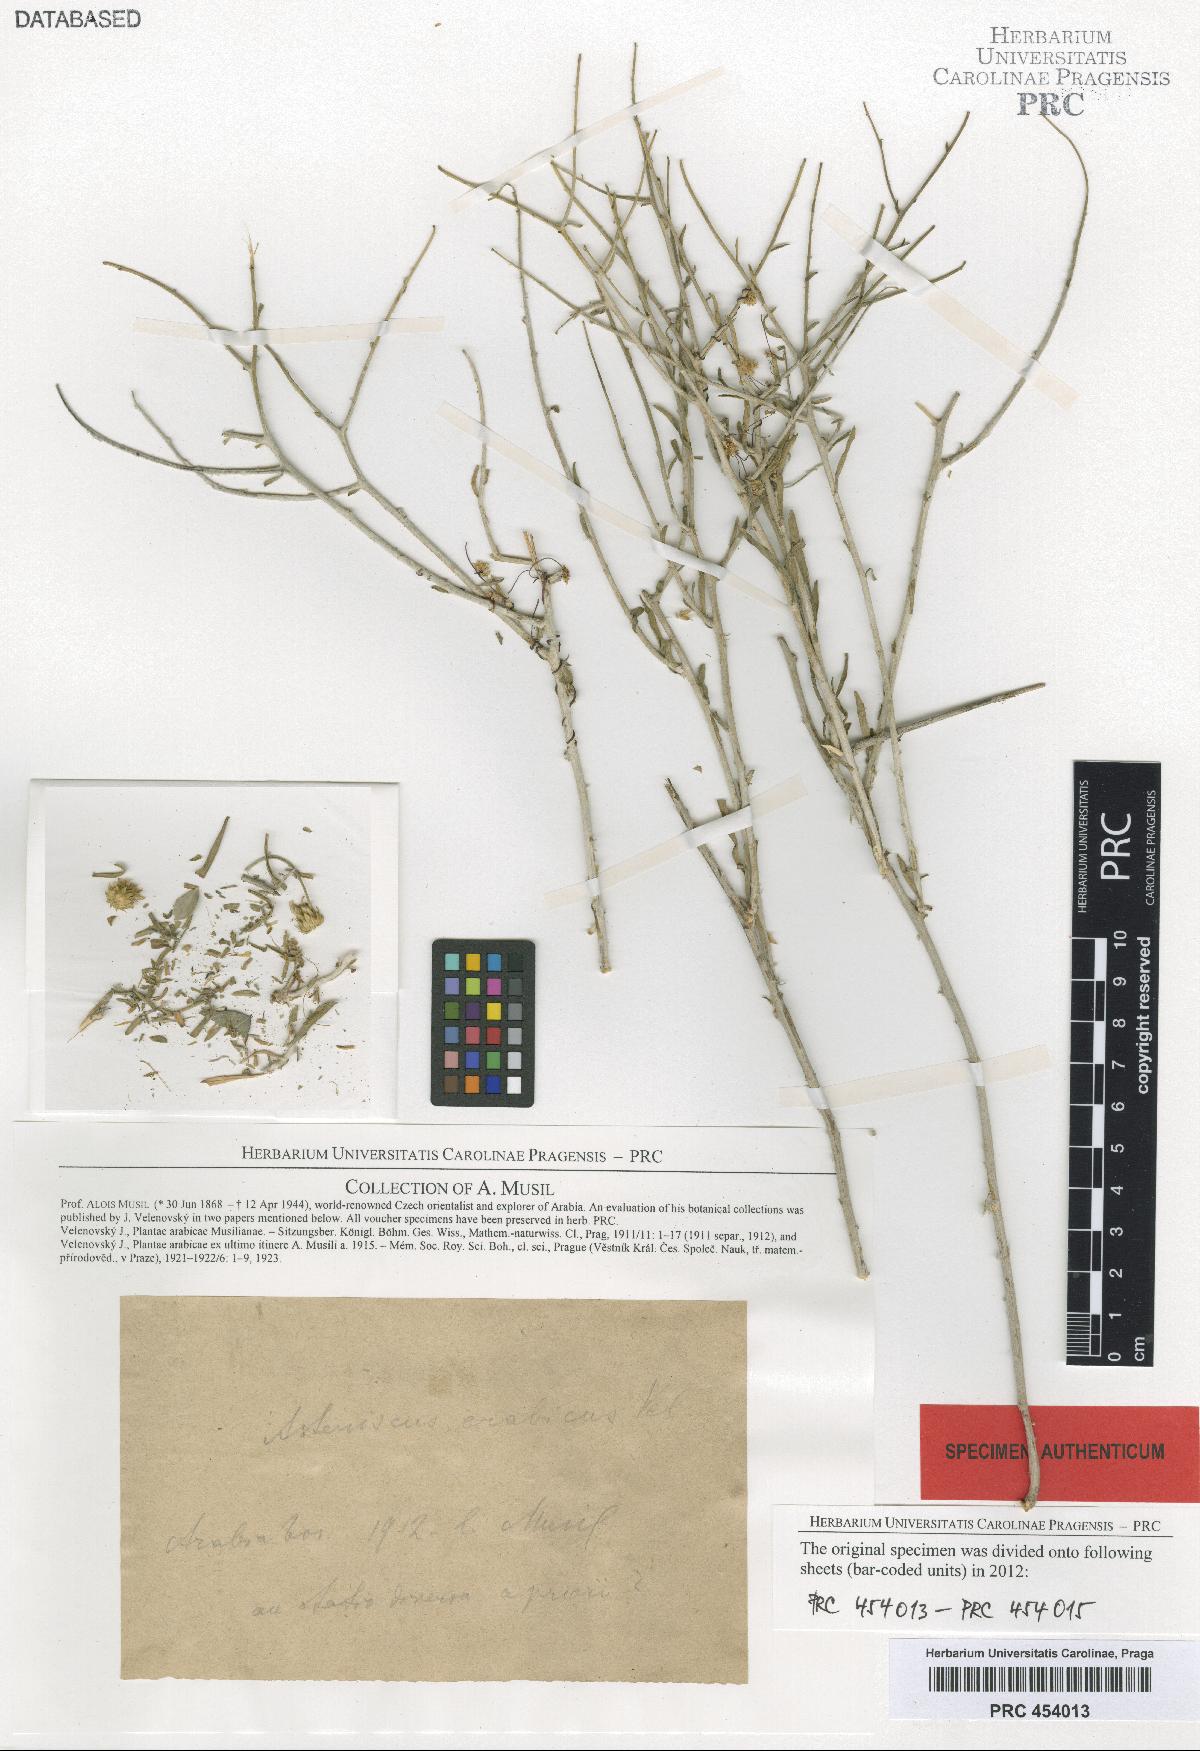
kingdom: Plantae
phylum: Tracheophyta
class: Magnoliopsida
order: Asterales
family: Asteraceae
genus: Rhanterium
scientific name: Rhanterium epapposum
